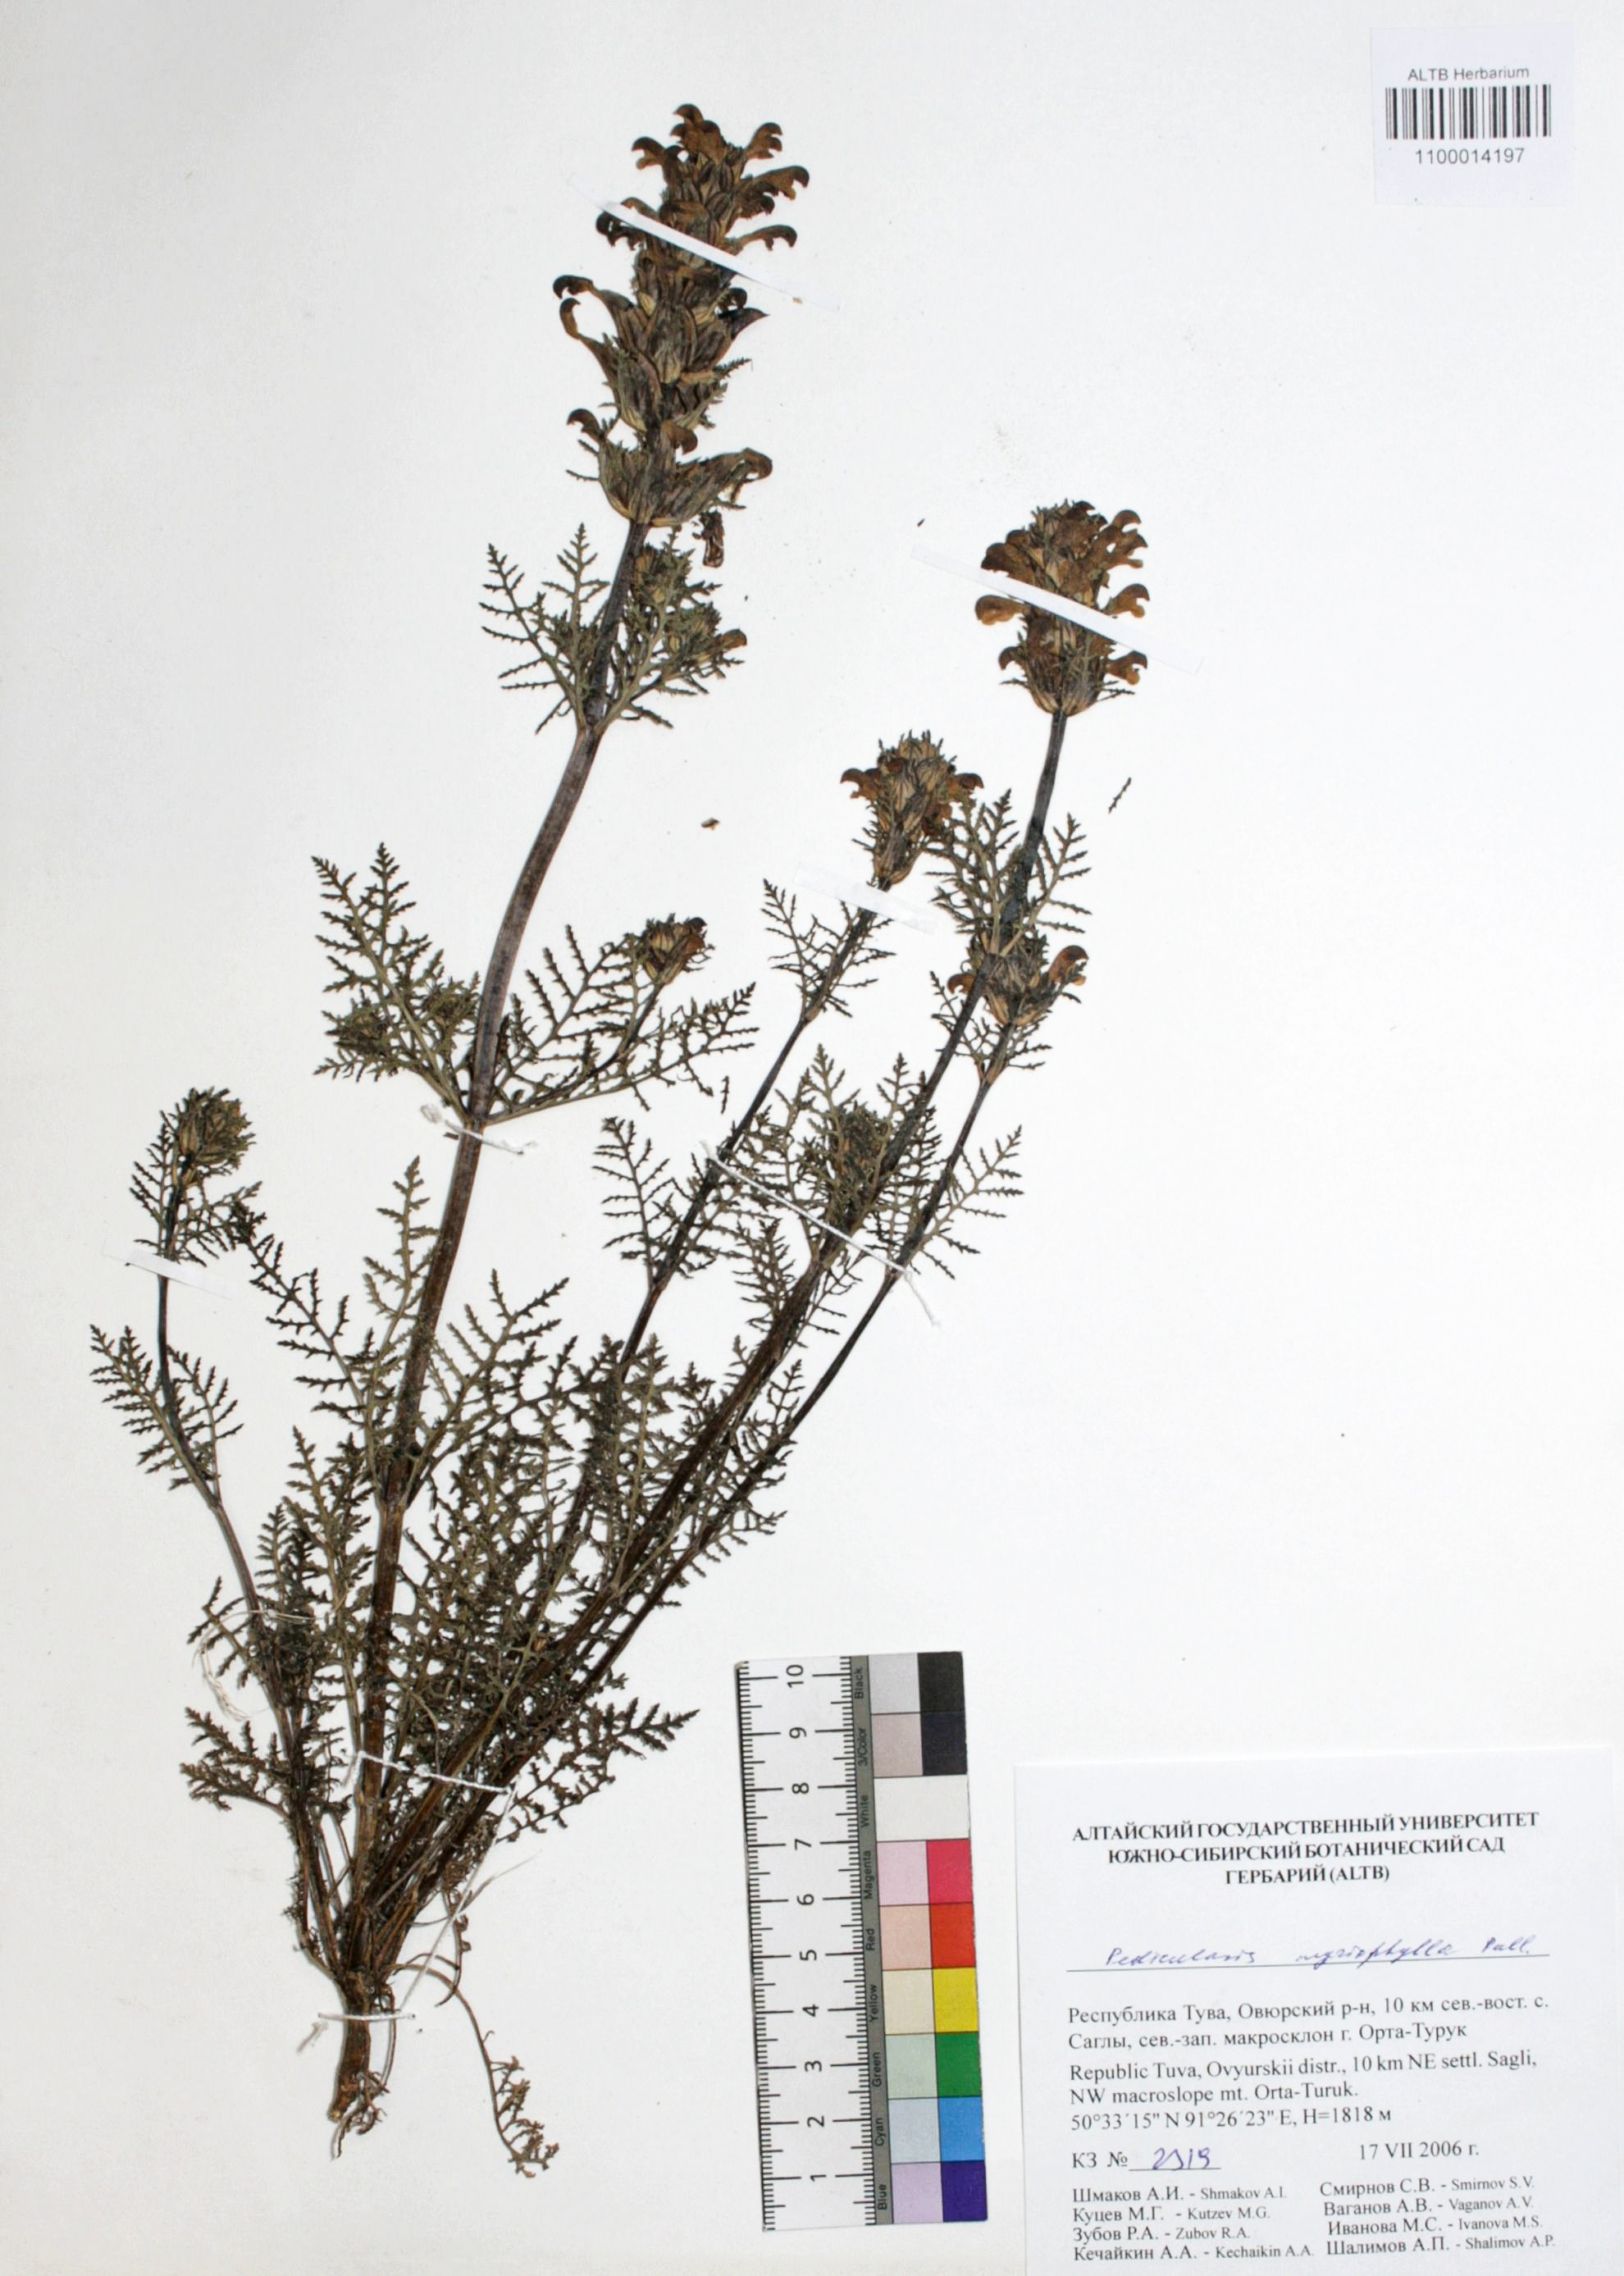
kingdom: Plantae
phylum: Tracheophyta
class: Magnoliopsida
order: Lamiales
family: Orobanchaceae
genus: Pedicularis
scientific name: Pedicularis myriophylla
